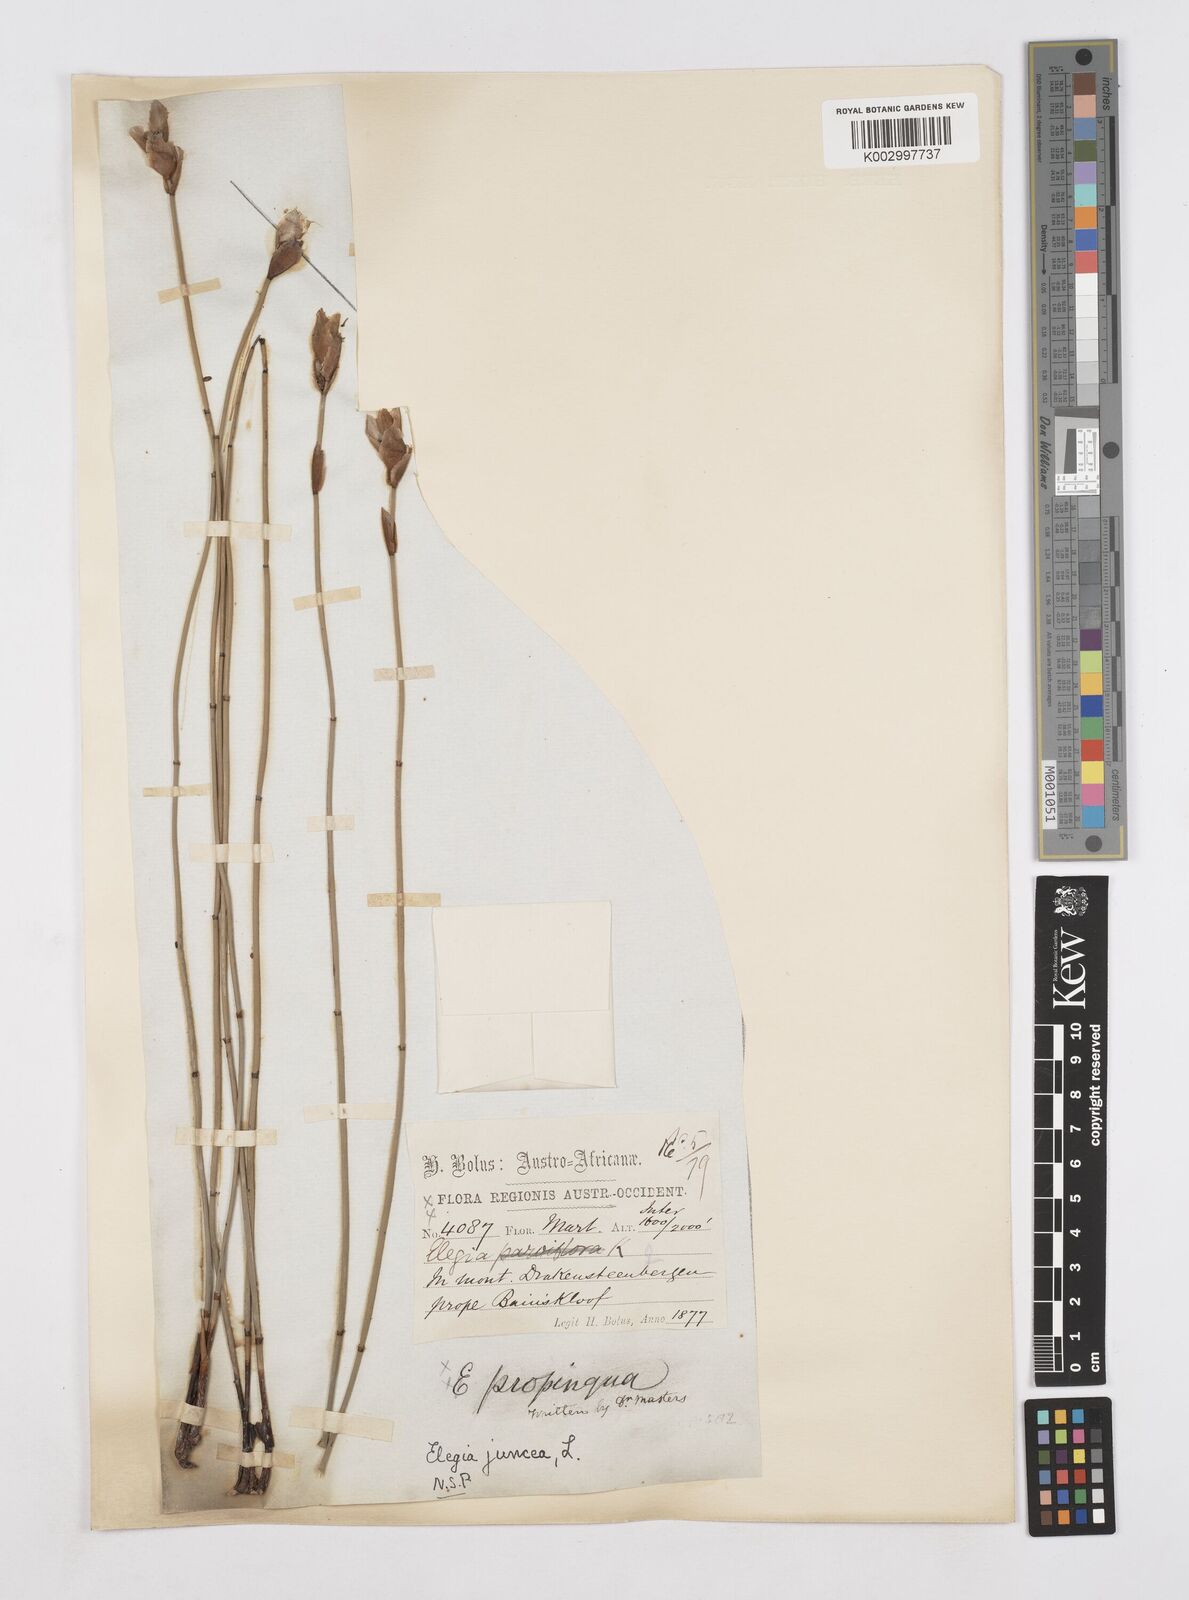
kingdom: Plantae
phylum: Tracheophyta
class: Liliopsida
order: Poales
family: Restionaceae
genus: Elegia
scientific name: Elegia juncea
